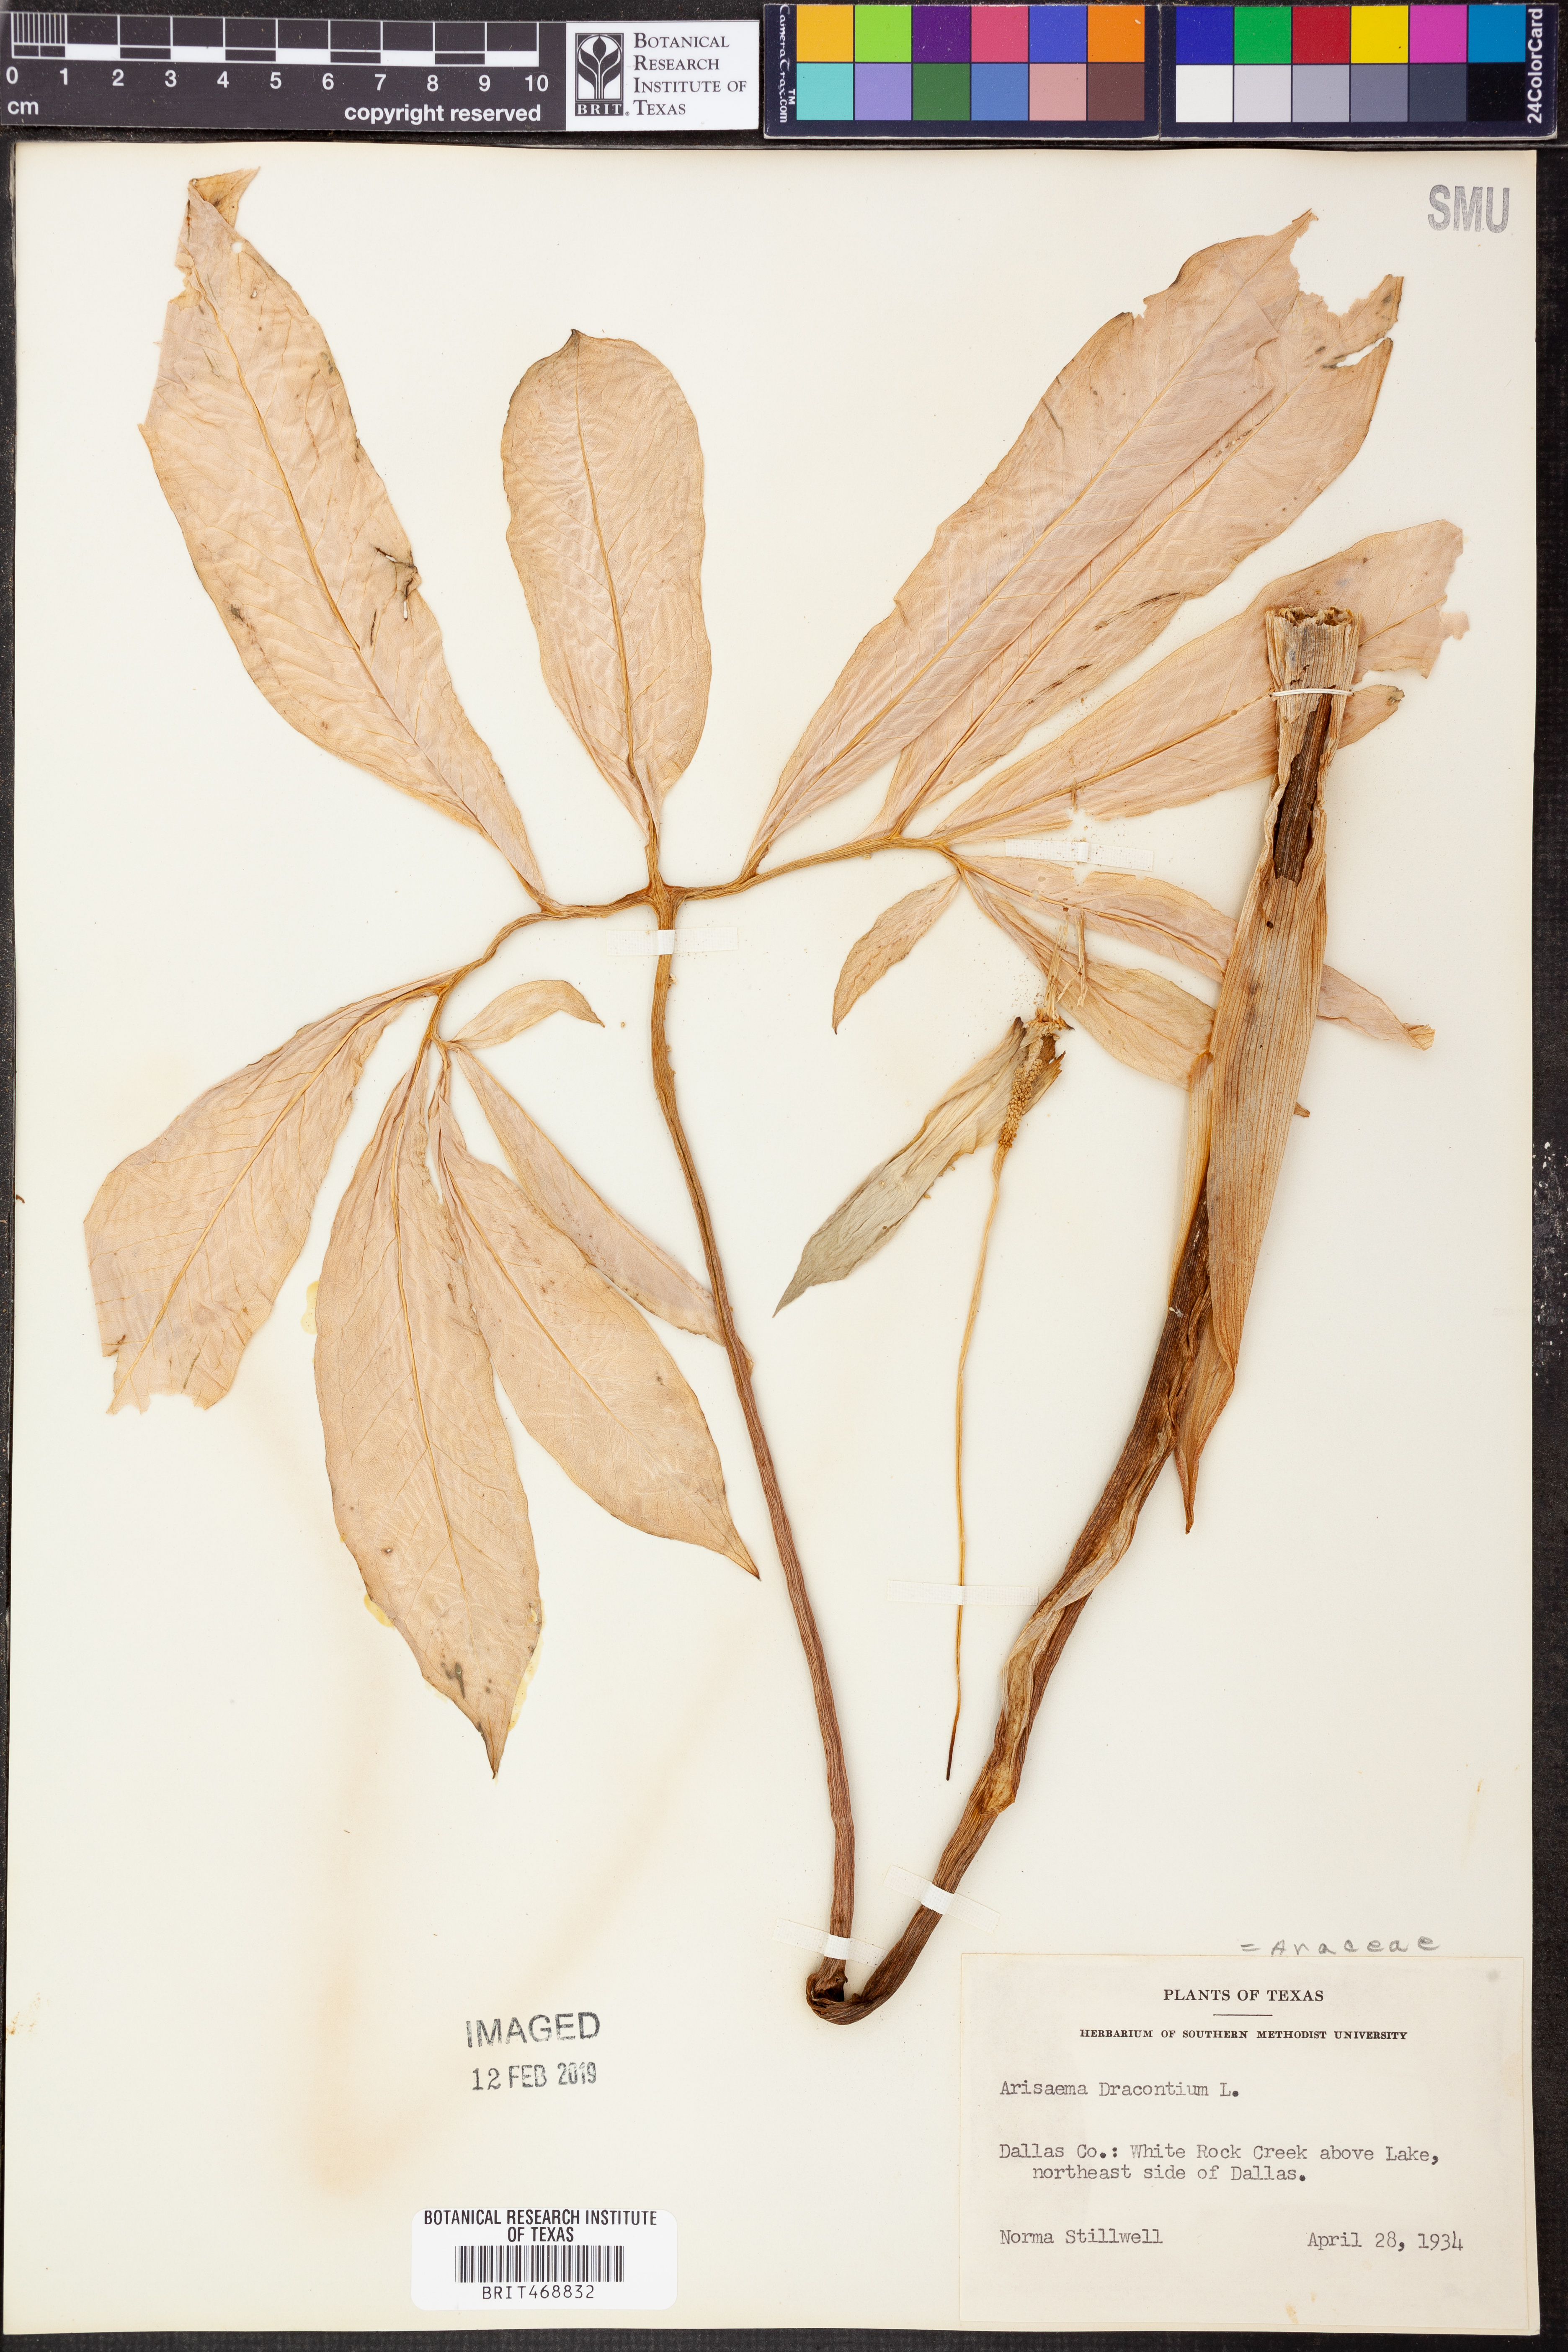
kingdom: Plantae
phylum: Tracheophyta
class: Liliopsida
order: Alismatales
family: Araceae
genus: Arisaema
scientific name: Arisaema dracontium
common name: Dragon-arum
